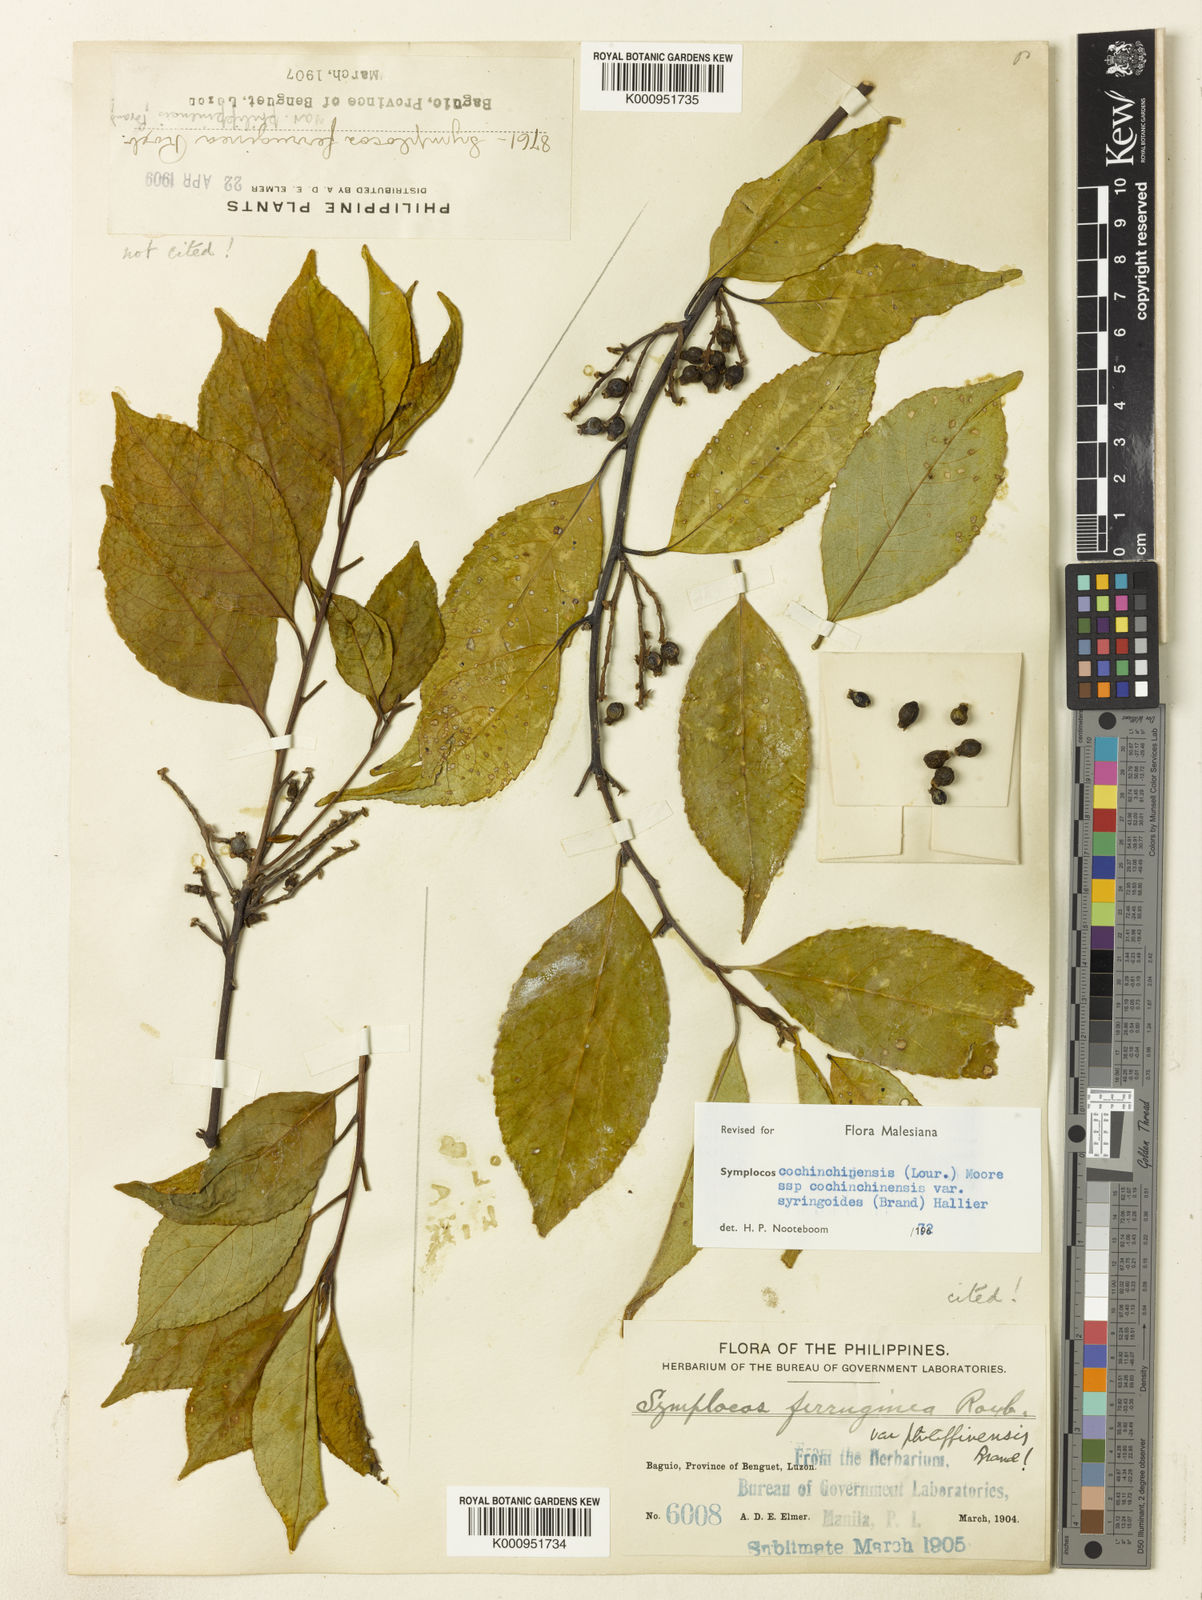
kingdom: Plantae
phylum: Tracheophyta
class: Magnoliopsida
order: Ericales
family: Symplocaceae
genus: Symplocos
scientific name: Symplocos cochinchinensis
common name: Buff hazelwood
